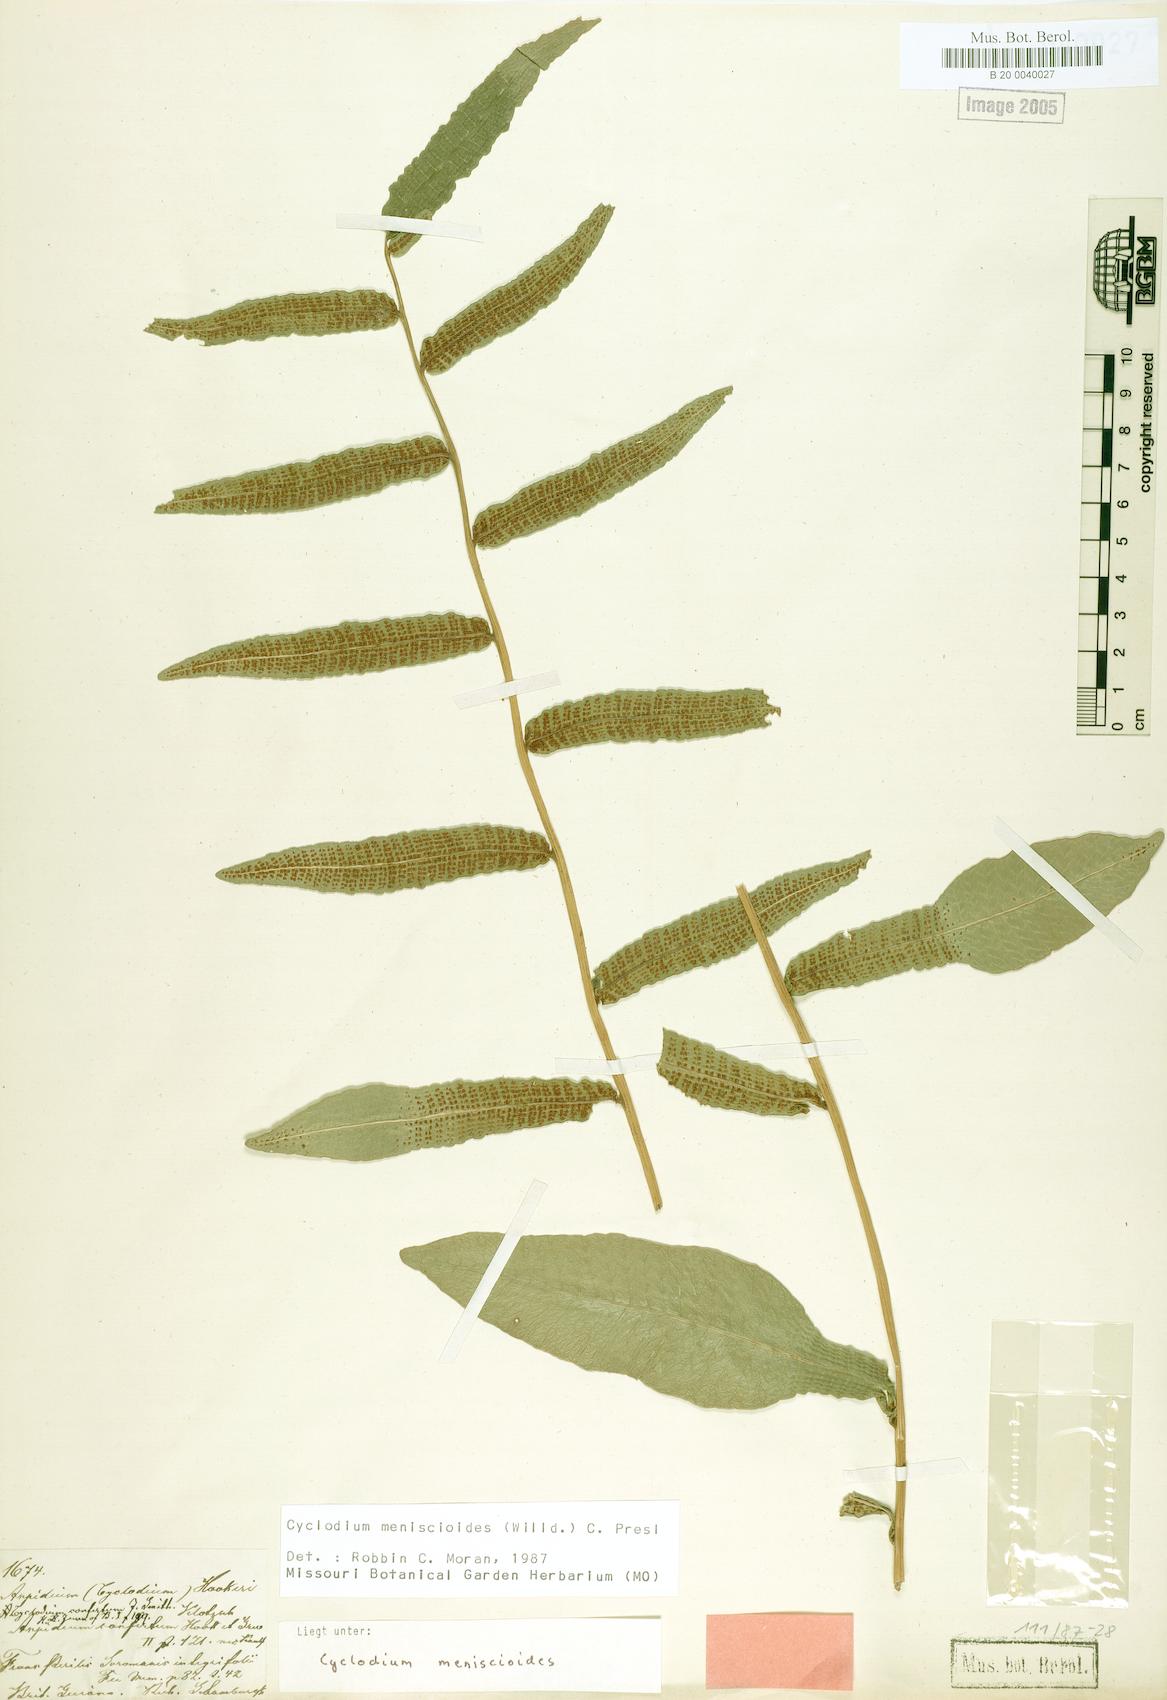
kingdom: Plantae
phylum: Tracheophyta
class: Polypodiopsida
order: Polypodiales
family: Dryopteridaceae
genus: Cyclodium
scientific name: Cyclodium meniscioides
